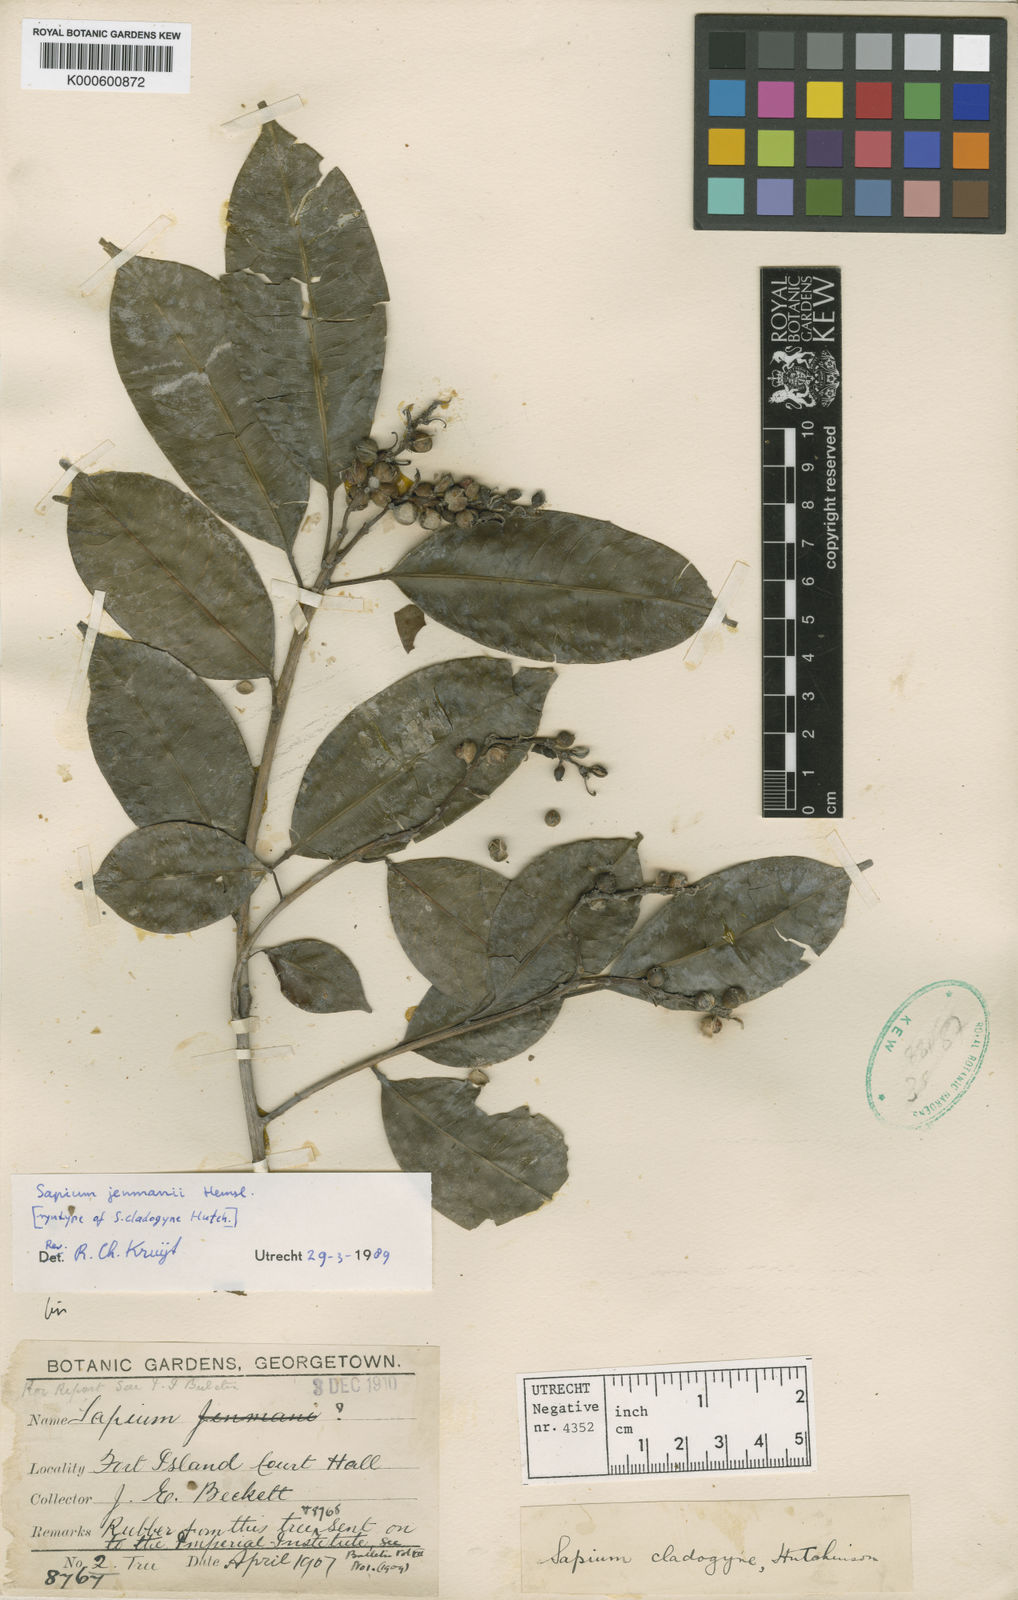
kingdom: Plantae
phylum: Tracheophyta
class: Magnoliopsida
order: Malpighiales
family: Euphorbiaceae
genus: Sapium
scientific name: Sapium jenmannii
